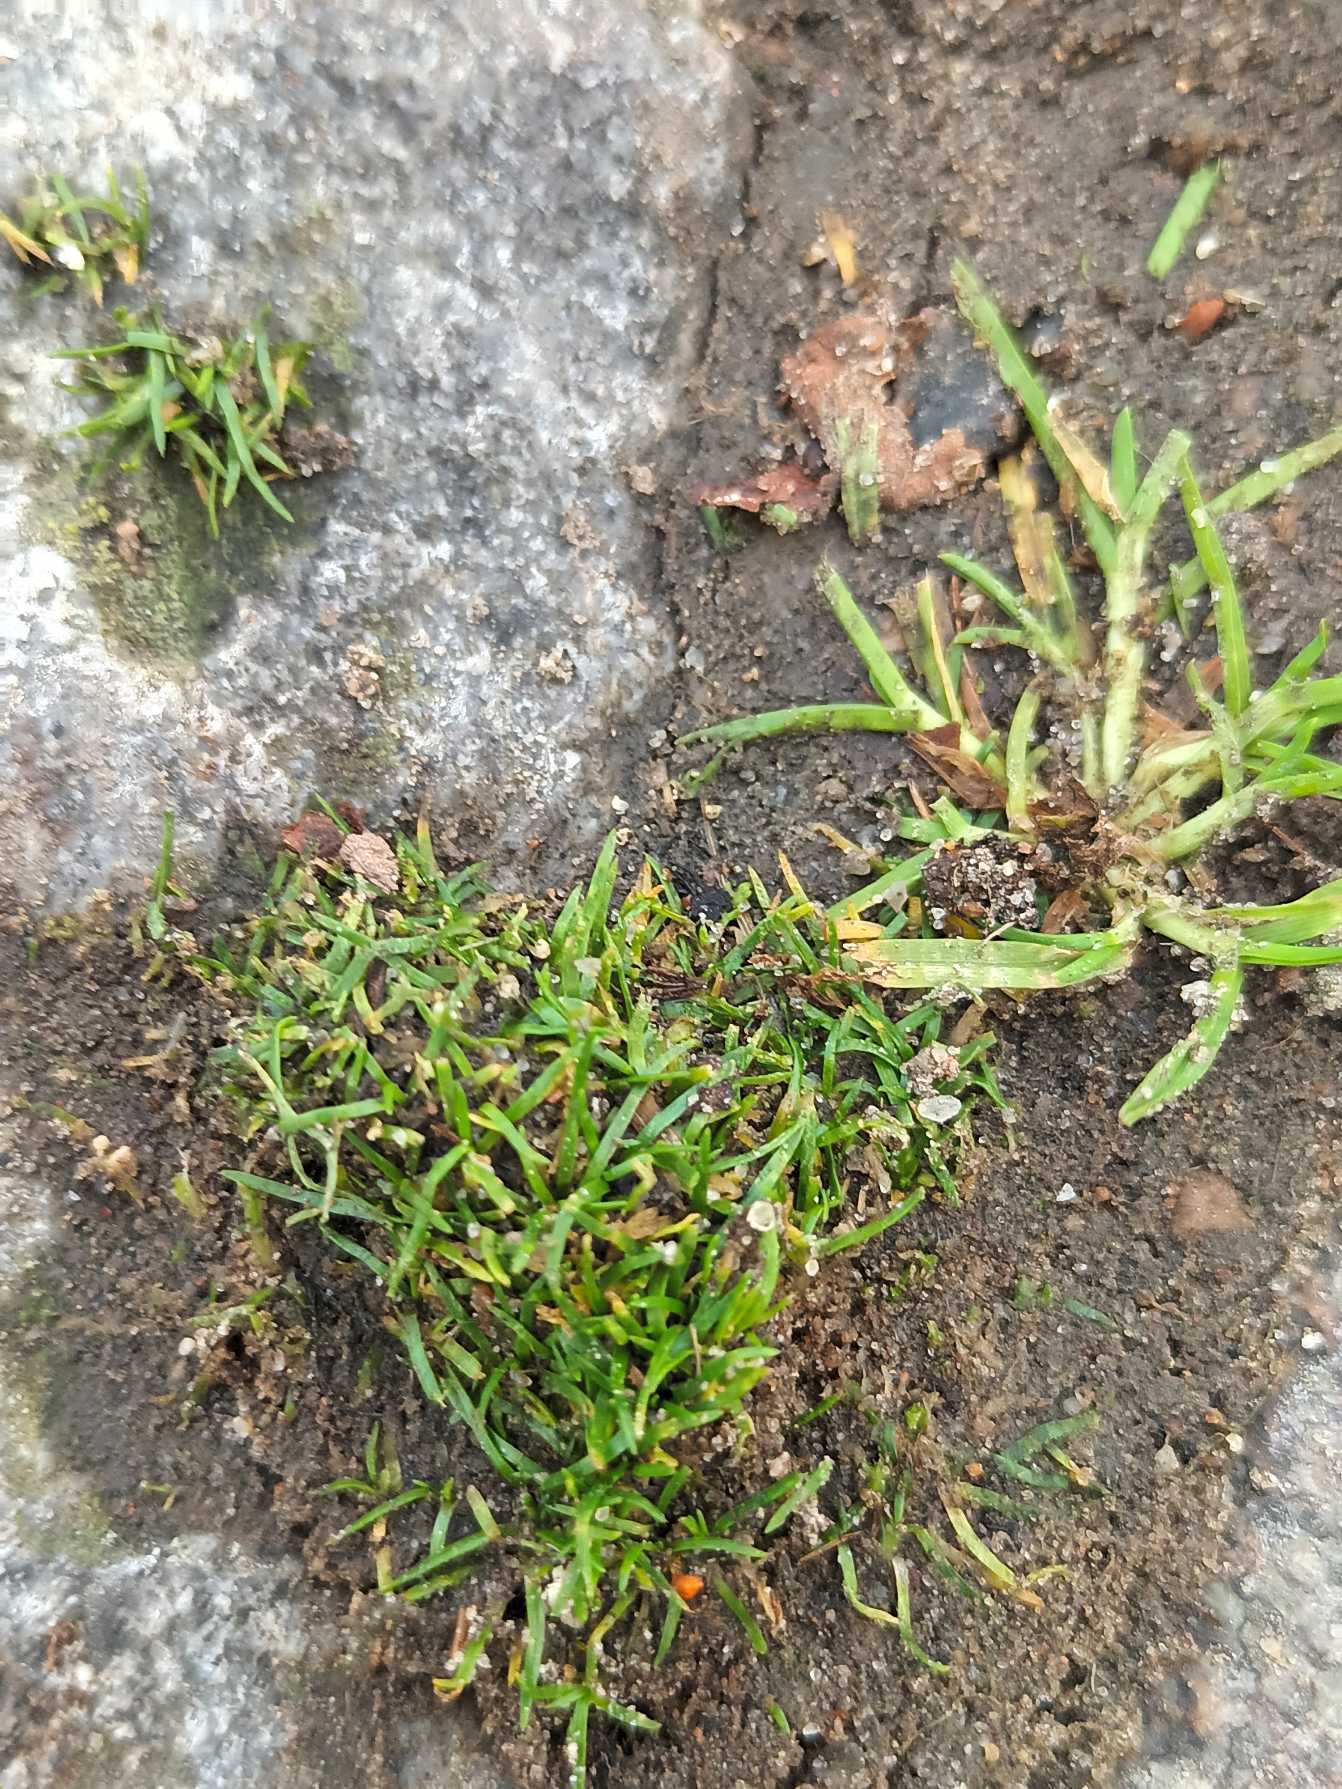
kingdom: Plantae
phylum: Tracheophyta
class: Magnoliopsida
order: Caryophyllales
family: Caryophyllaceae
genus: Sagina
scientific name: Sagina procumbens
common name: Almindelig firling
